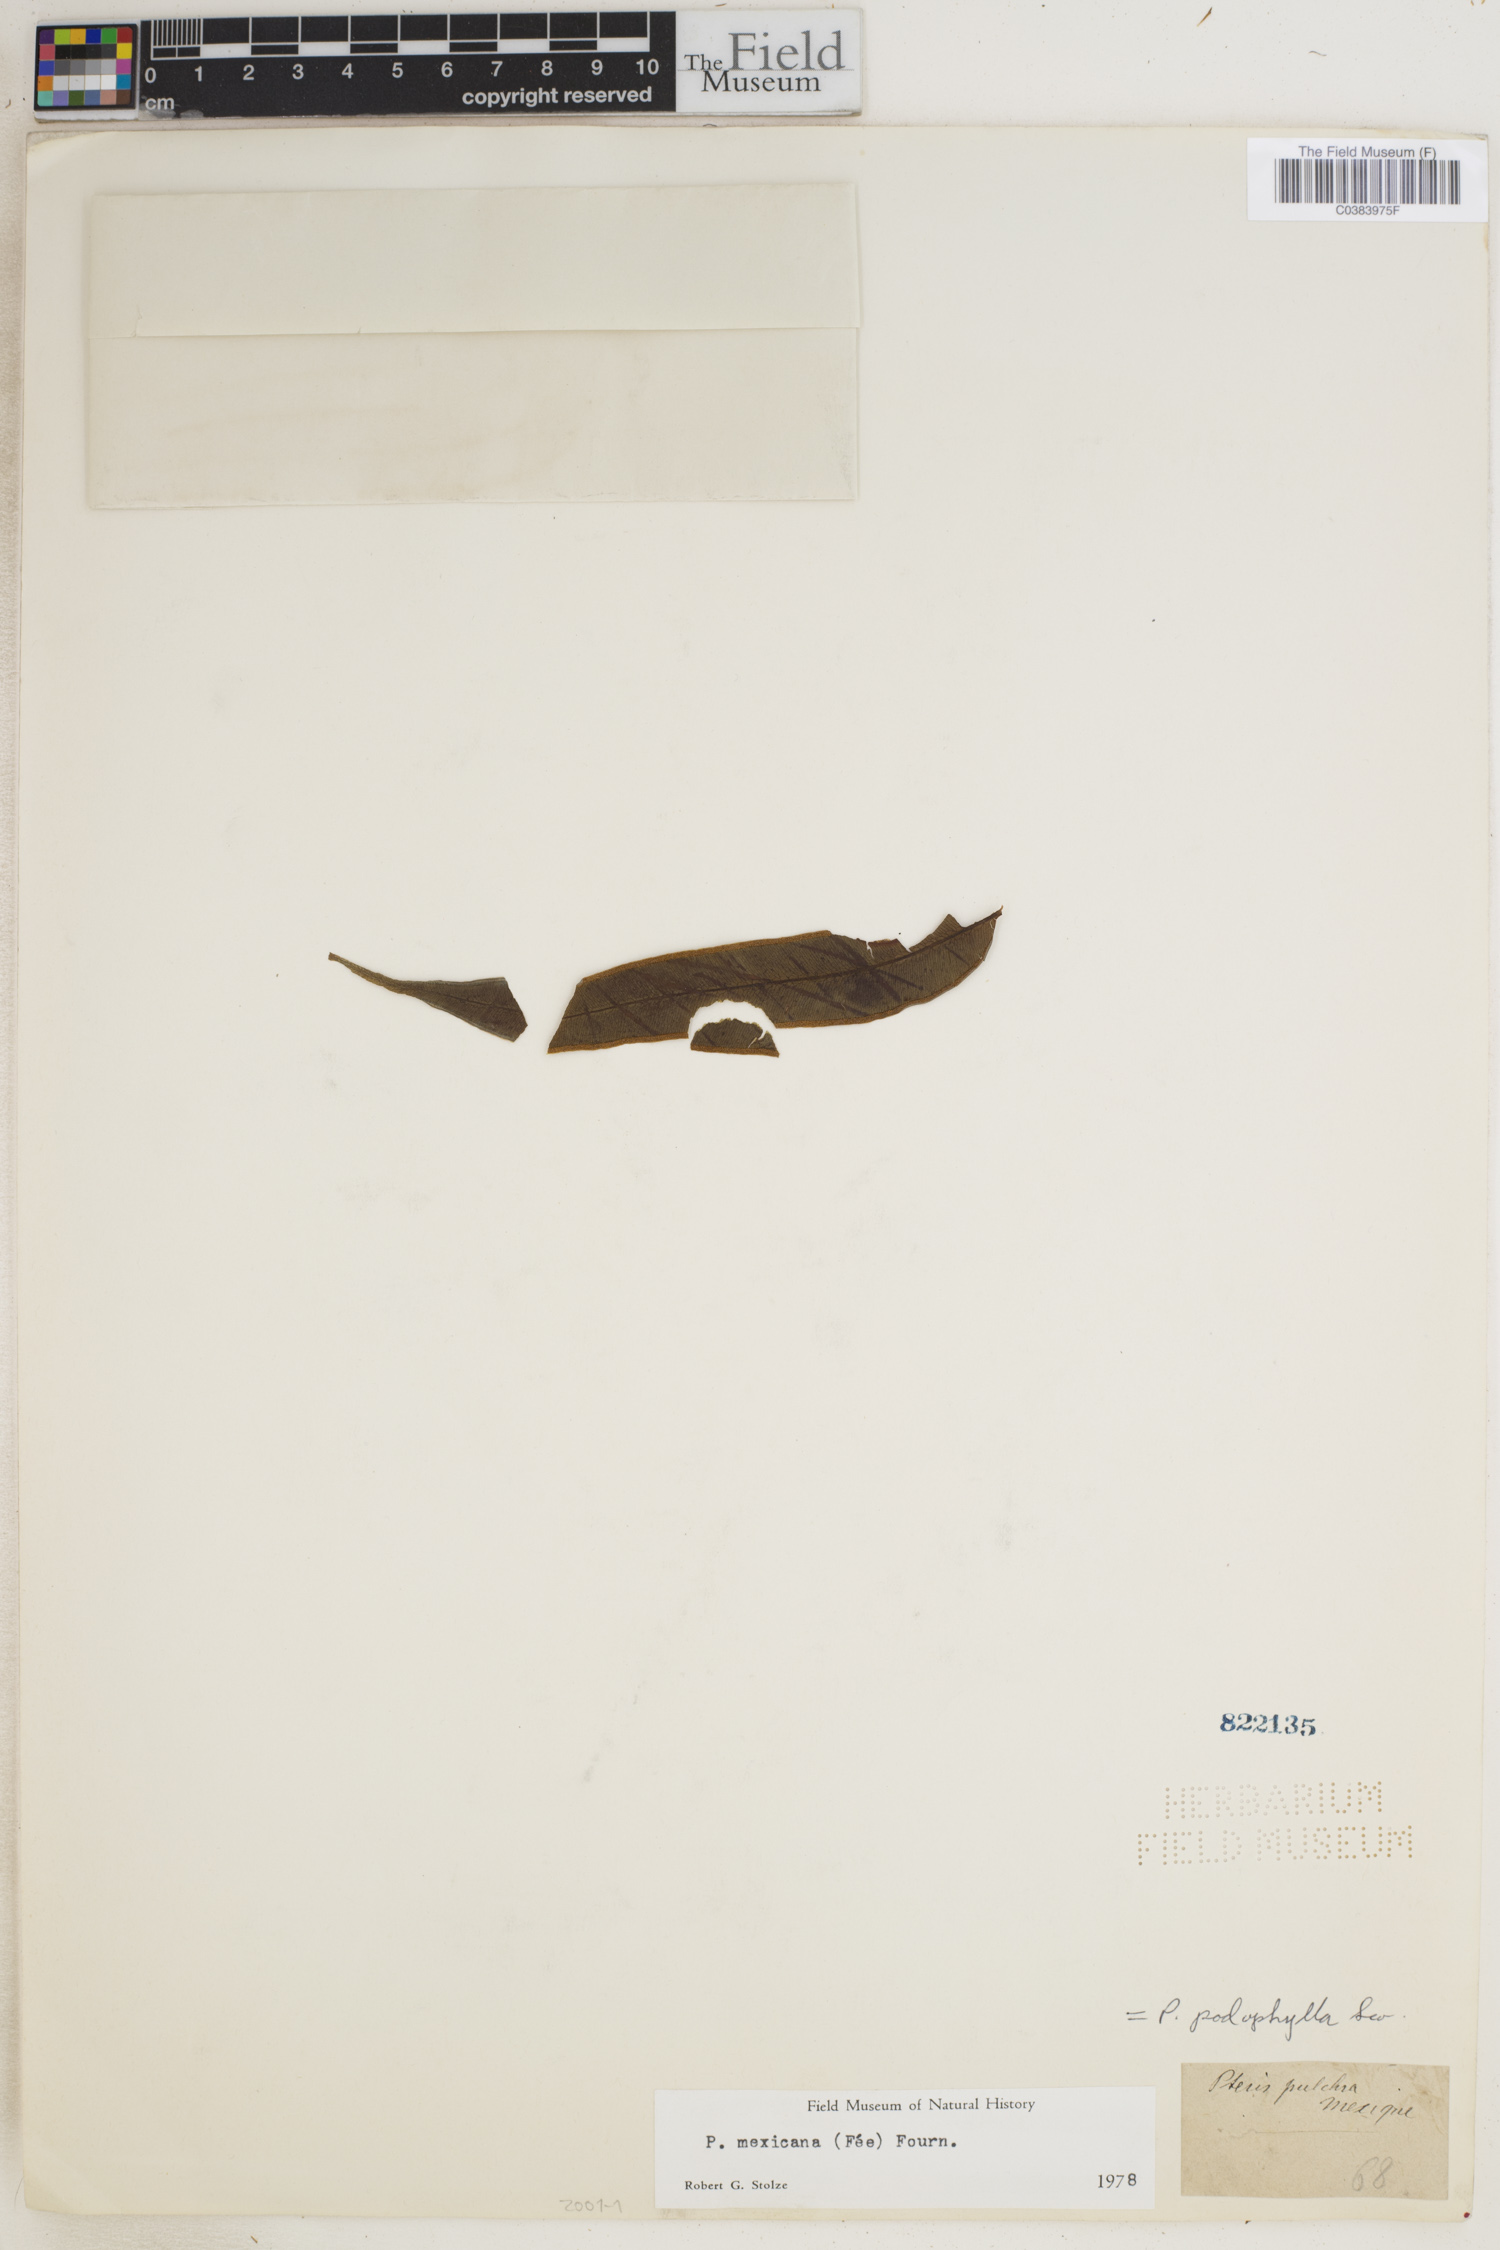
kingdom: Plantae
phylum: Tracheophyta
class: Polypodiopsida
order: Polypodiales
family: Pteridaceae
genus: Pteris
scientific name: Pteris pulchra
